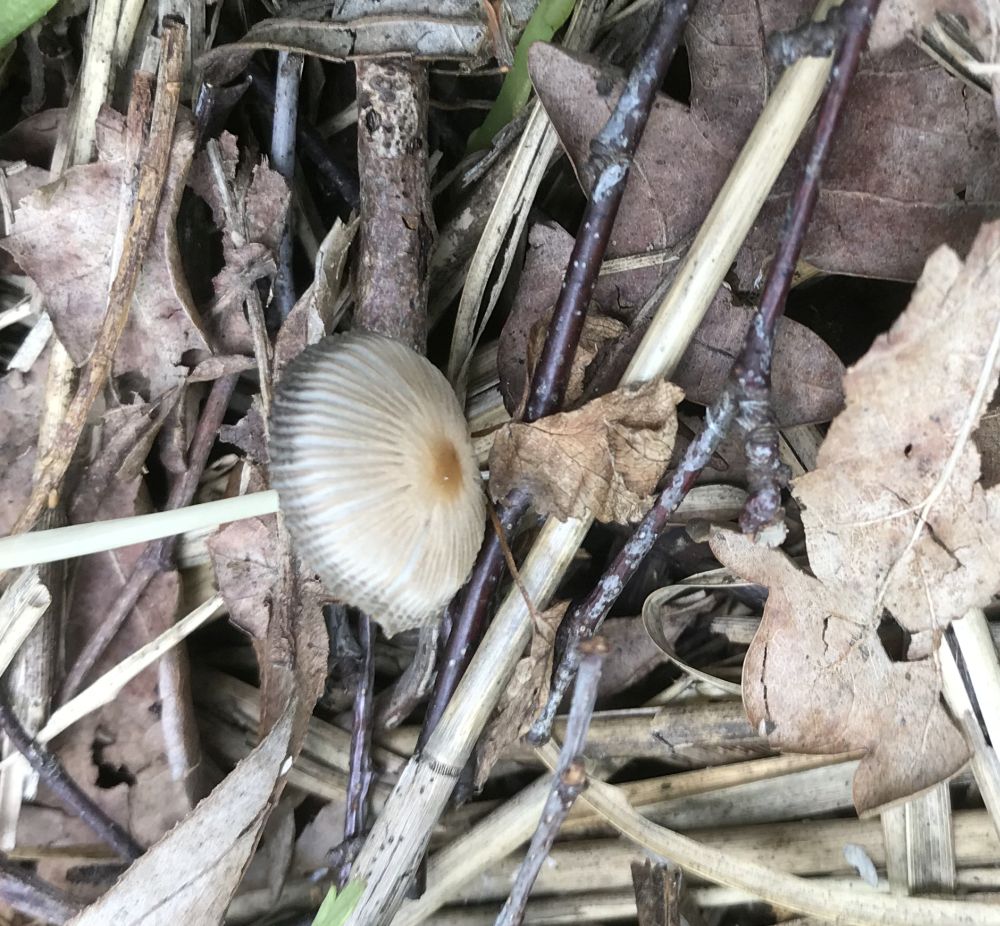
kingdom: Fungi
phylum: Basidiomycota
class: Agaricomycetes
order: Agaricales
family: Psathyrellaceae
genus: Parasola
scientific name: Parasola
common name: hjulhat
